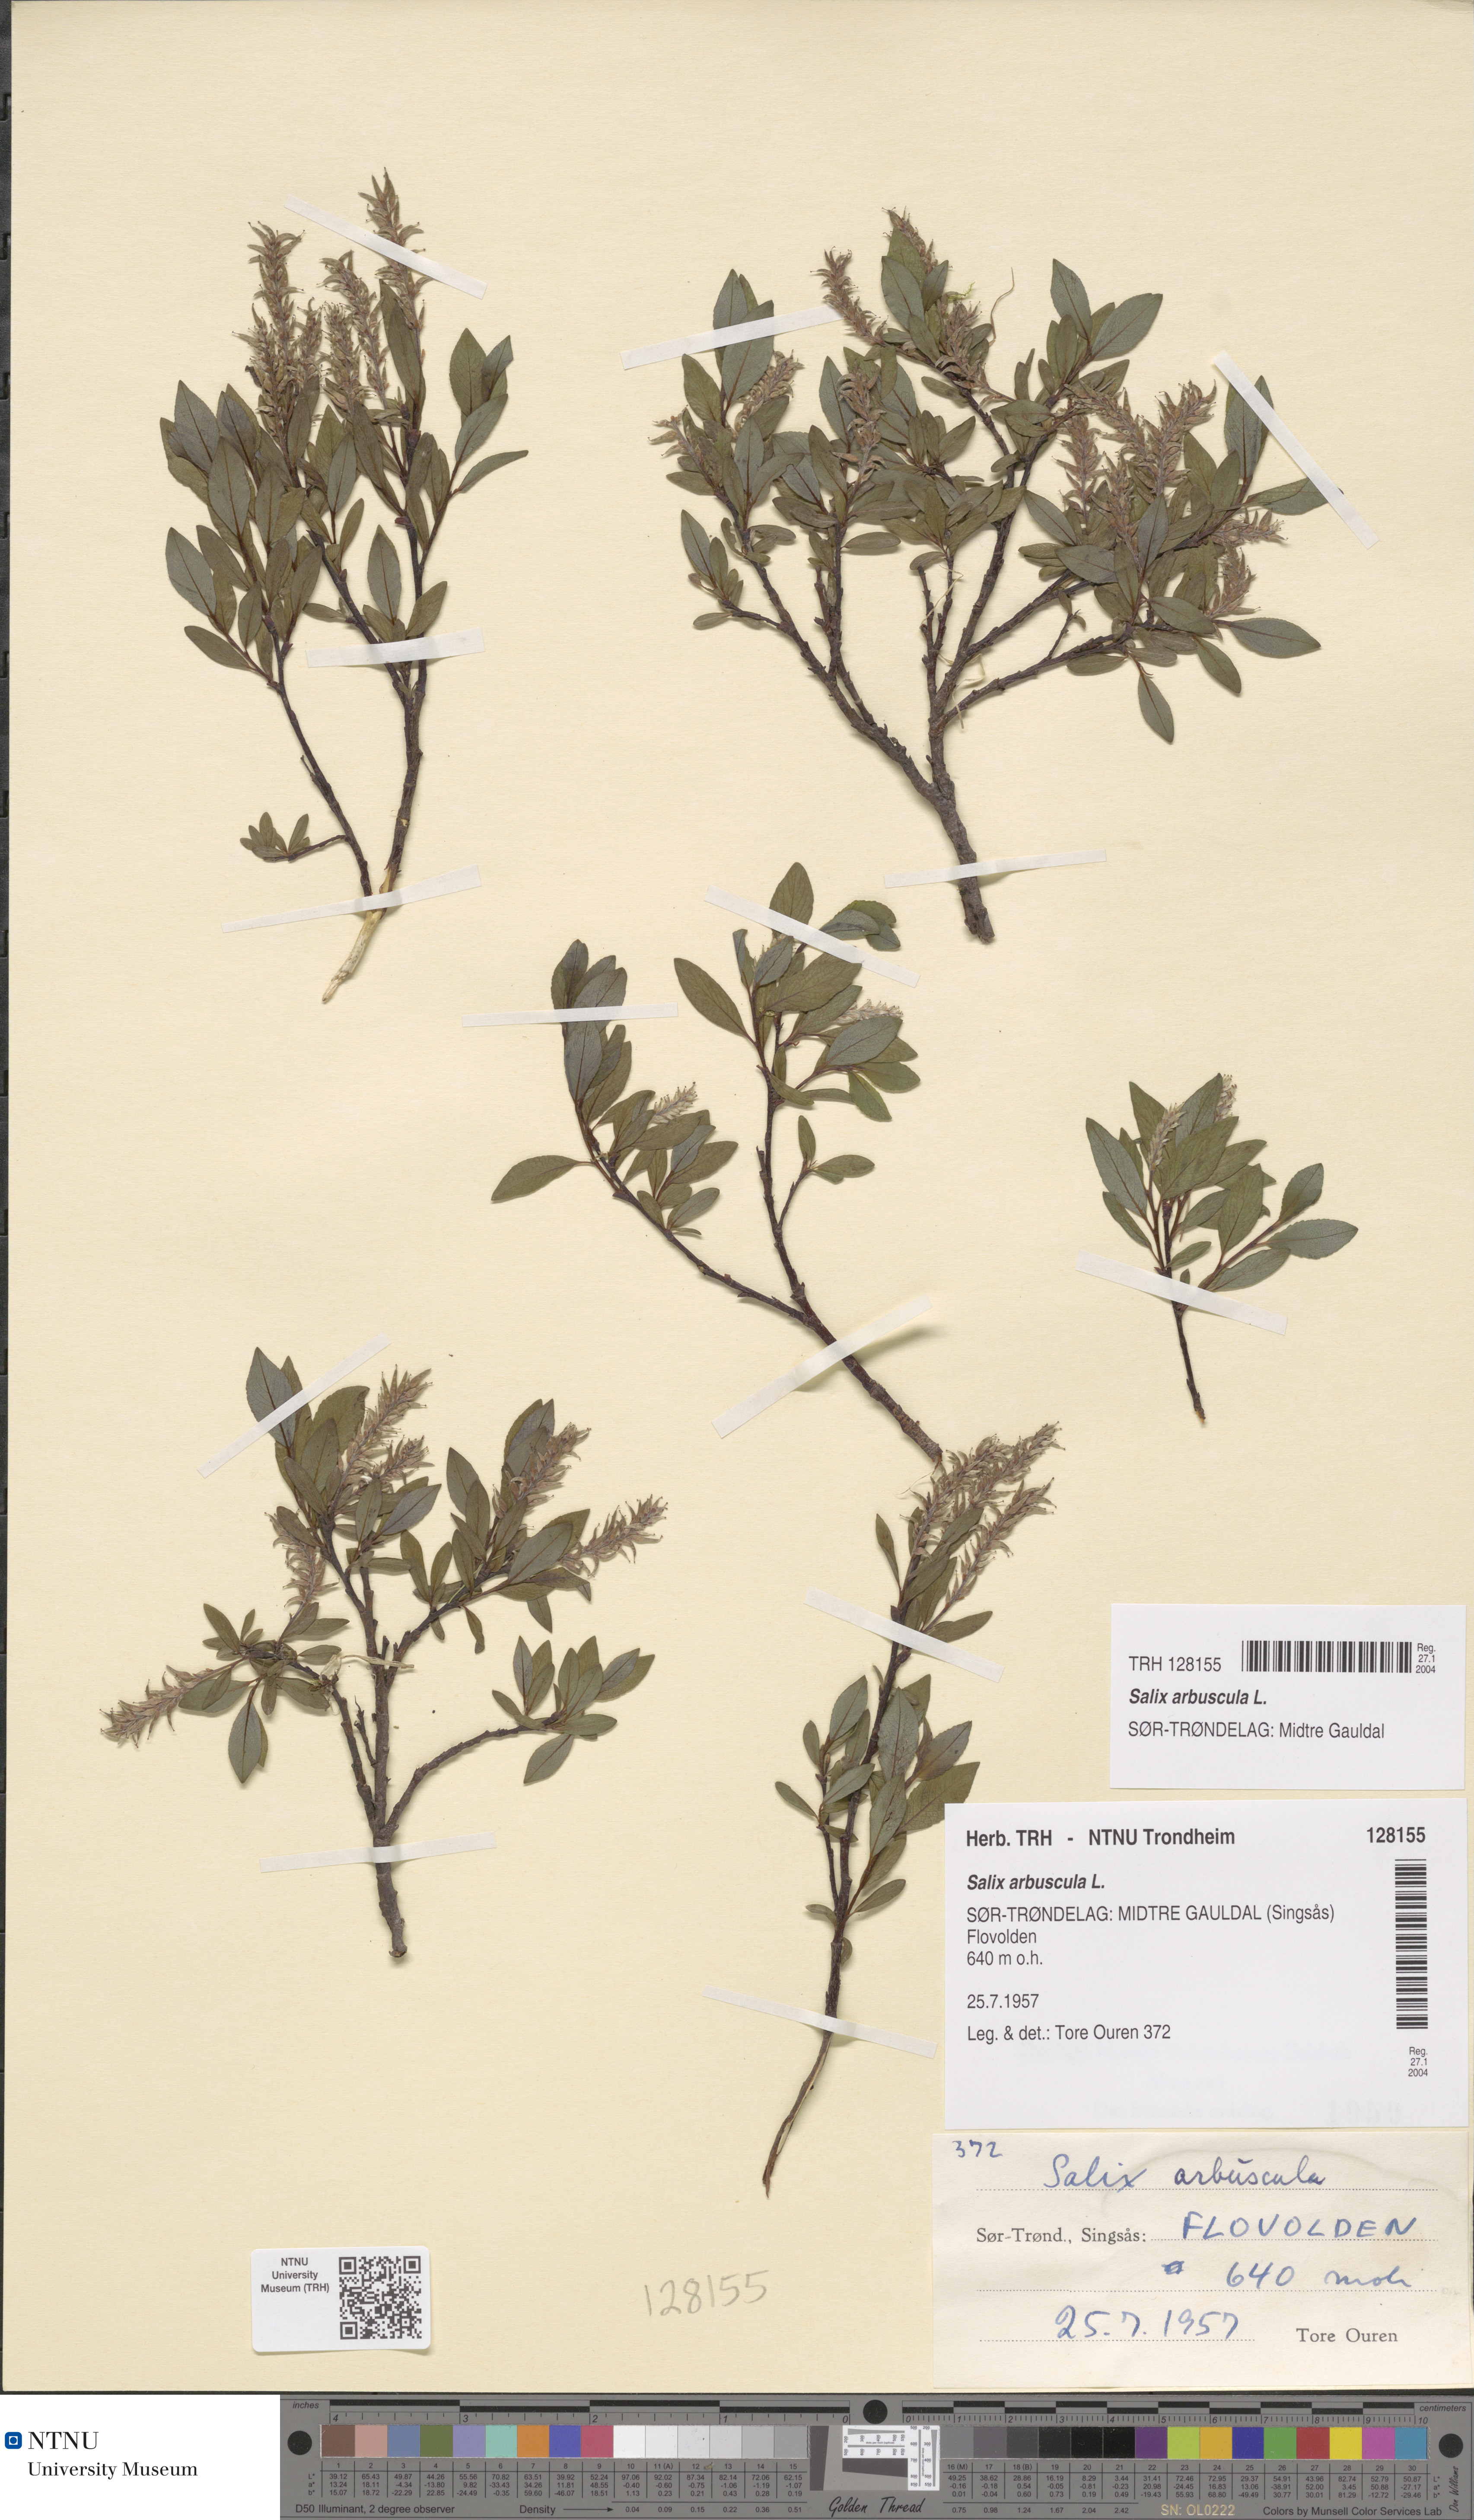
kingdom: Plantae
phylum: Tracheophyta
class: Magnoliopsida
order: Malpighiales
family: Salicaceae
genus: Salix
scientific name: Salix arbuscula
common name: Mountain willow
